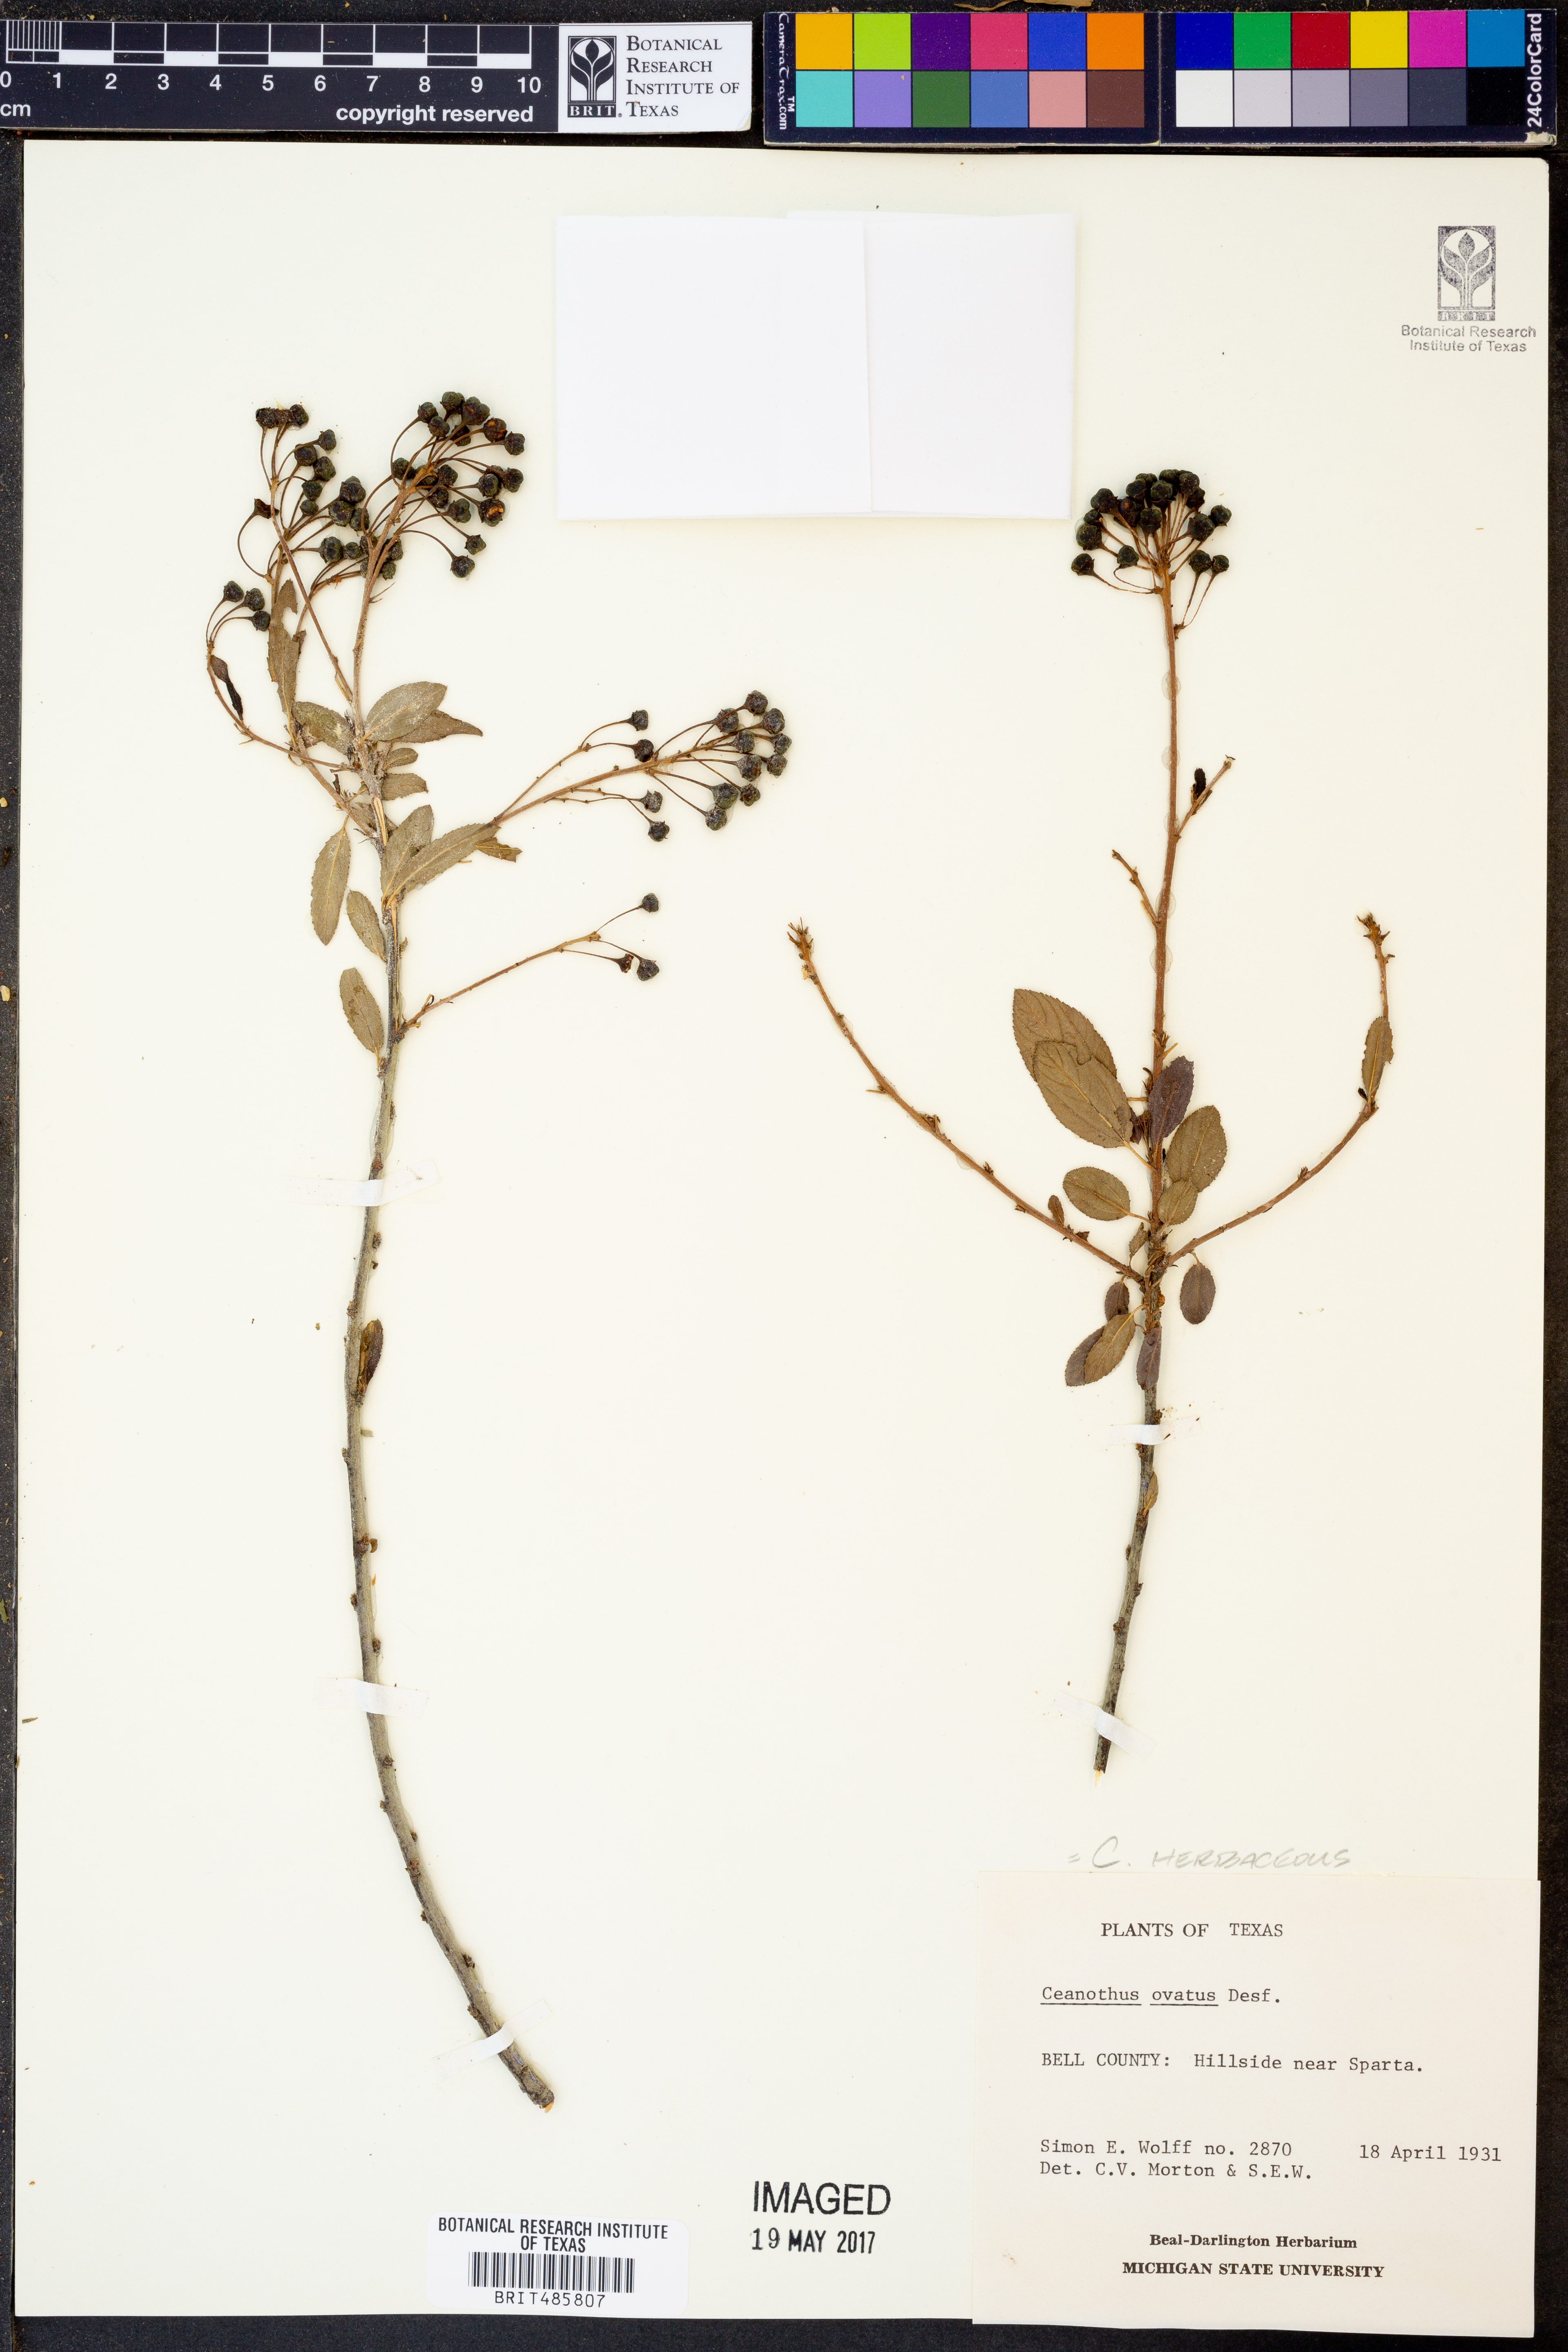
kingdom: Plantae
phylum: Tracheophyta
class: Magnoliopsida
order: Rosales
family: Rhamnaceae
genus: Ceanothus
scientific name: Ceanothus herbaceus
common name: Inland ceanothus
